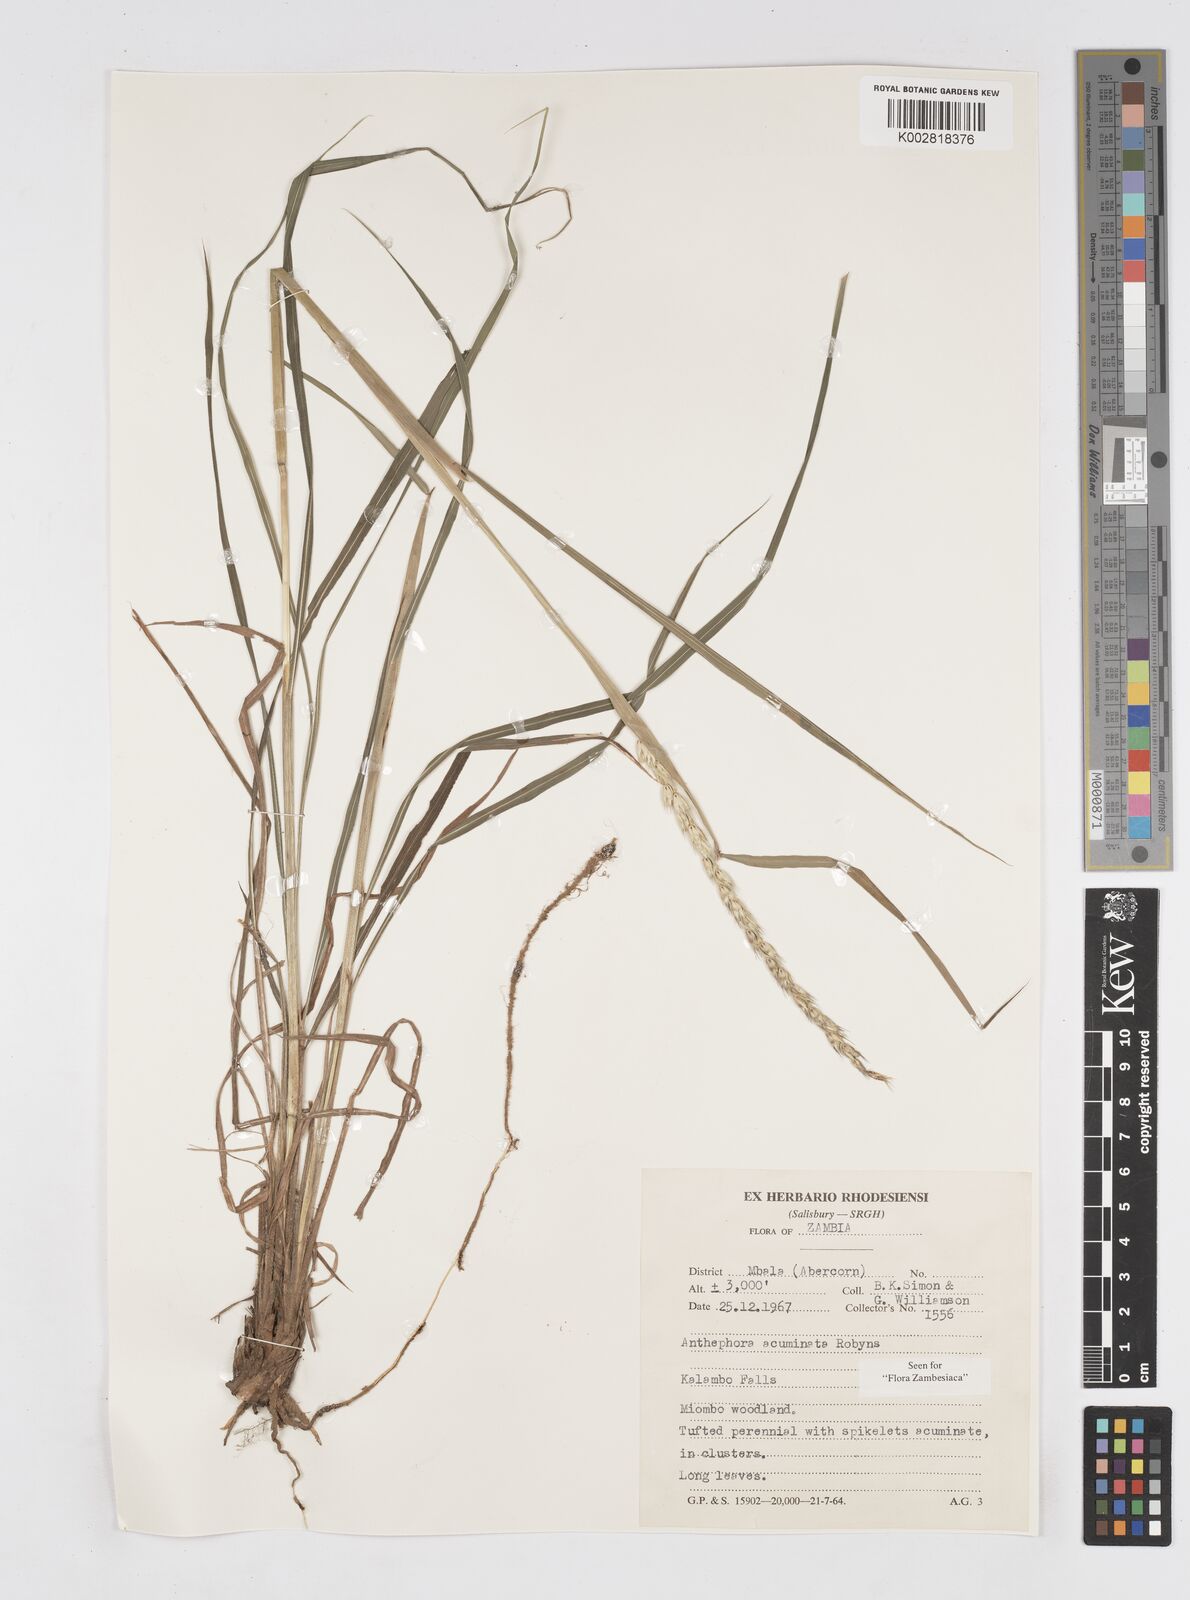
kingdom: Plantae
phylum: Tracheophyta
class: Liliopsida
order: Poales
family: Poaceae
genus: Anthephora
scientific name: Anthephora elongata
